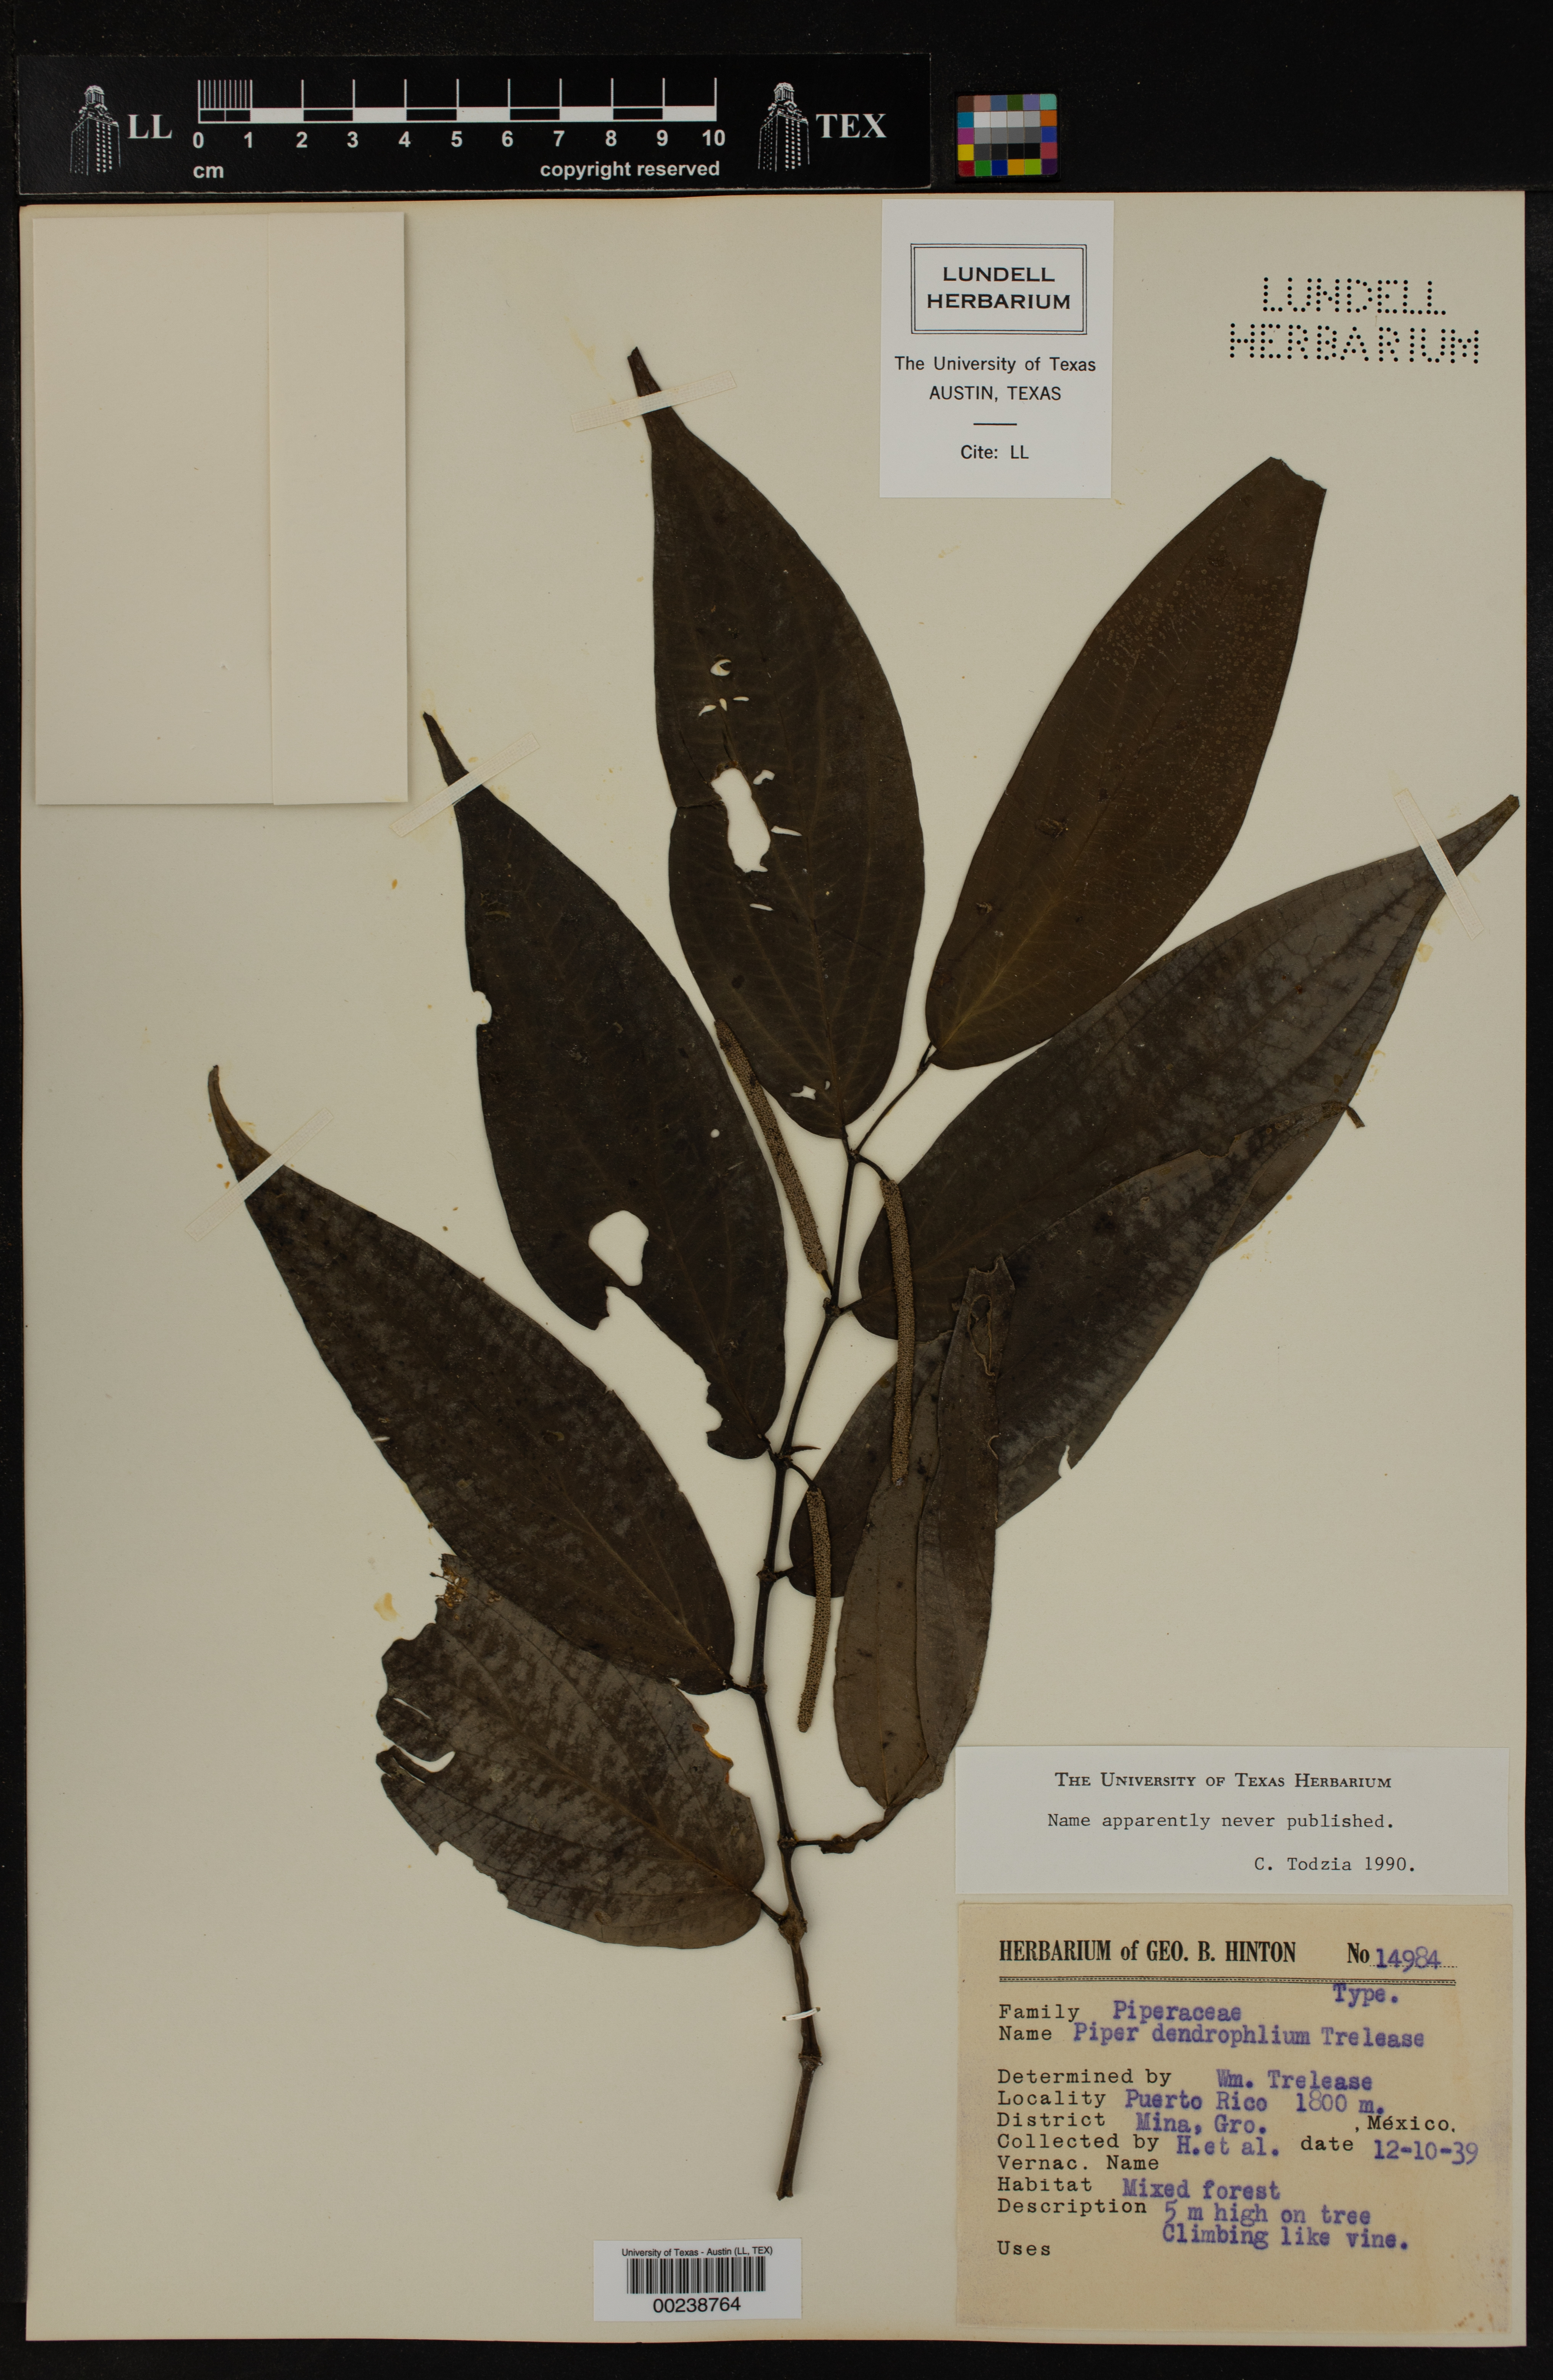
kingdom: Plantae
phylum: Tracheophyta
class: Magnoliopsida
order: Piperales
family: Piperaceae
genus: Piper
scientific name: Piper dendrophilum
